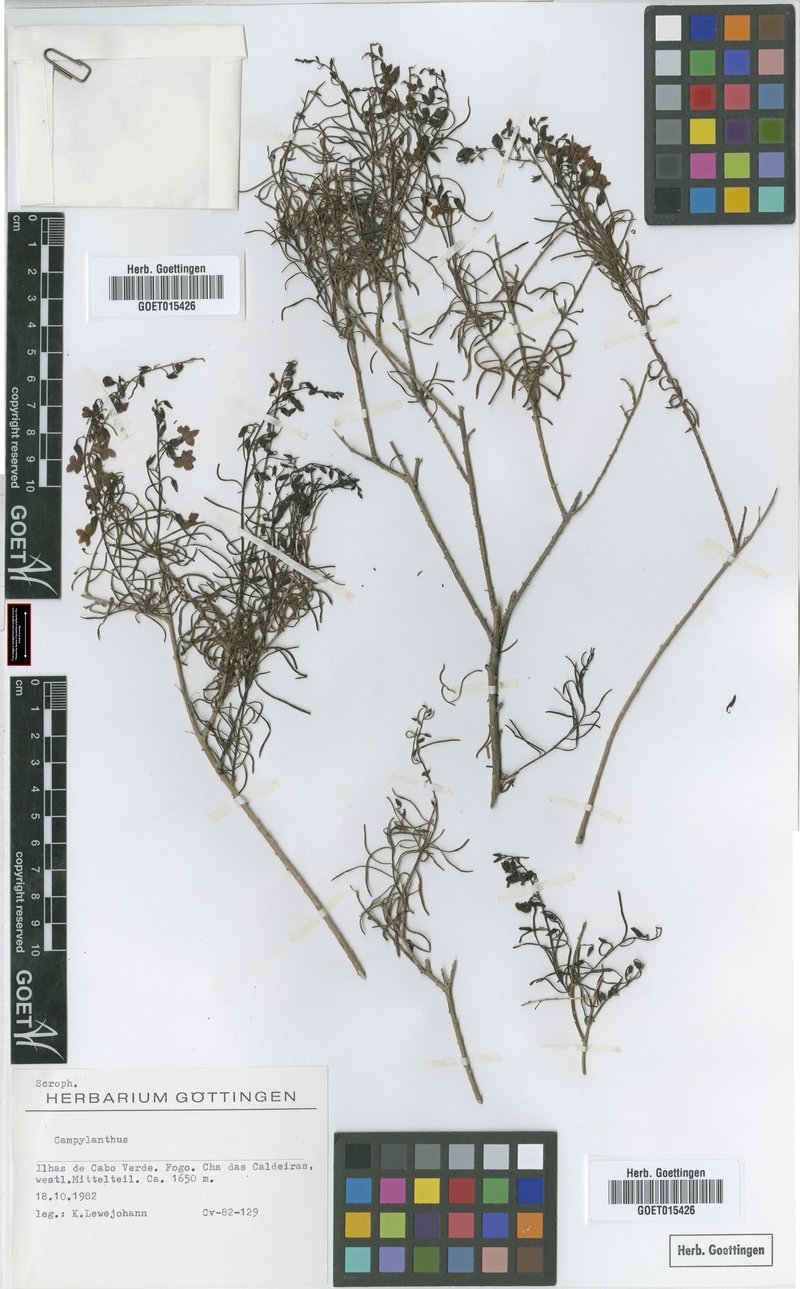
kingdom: Plantae
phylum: Tracheophyta
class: Magnoliopsida
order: Lamiales
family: Plantaginaceae
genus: Campylanthus
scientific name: Campylanthus
